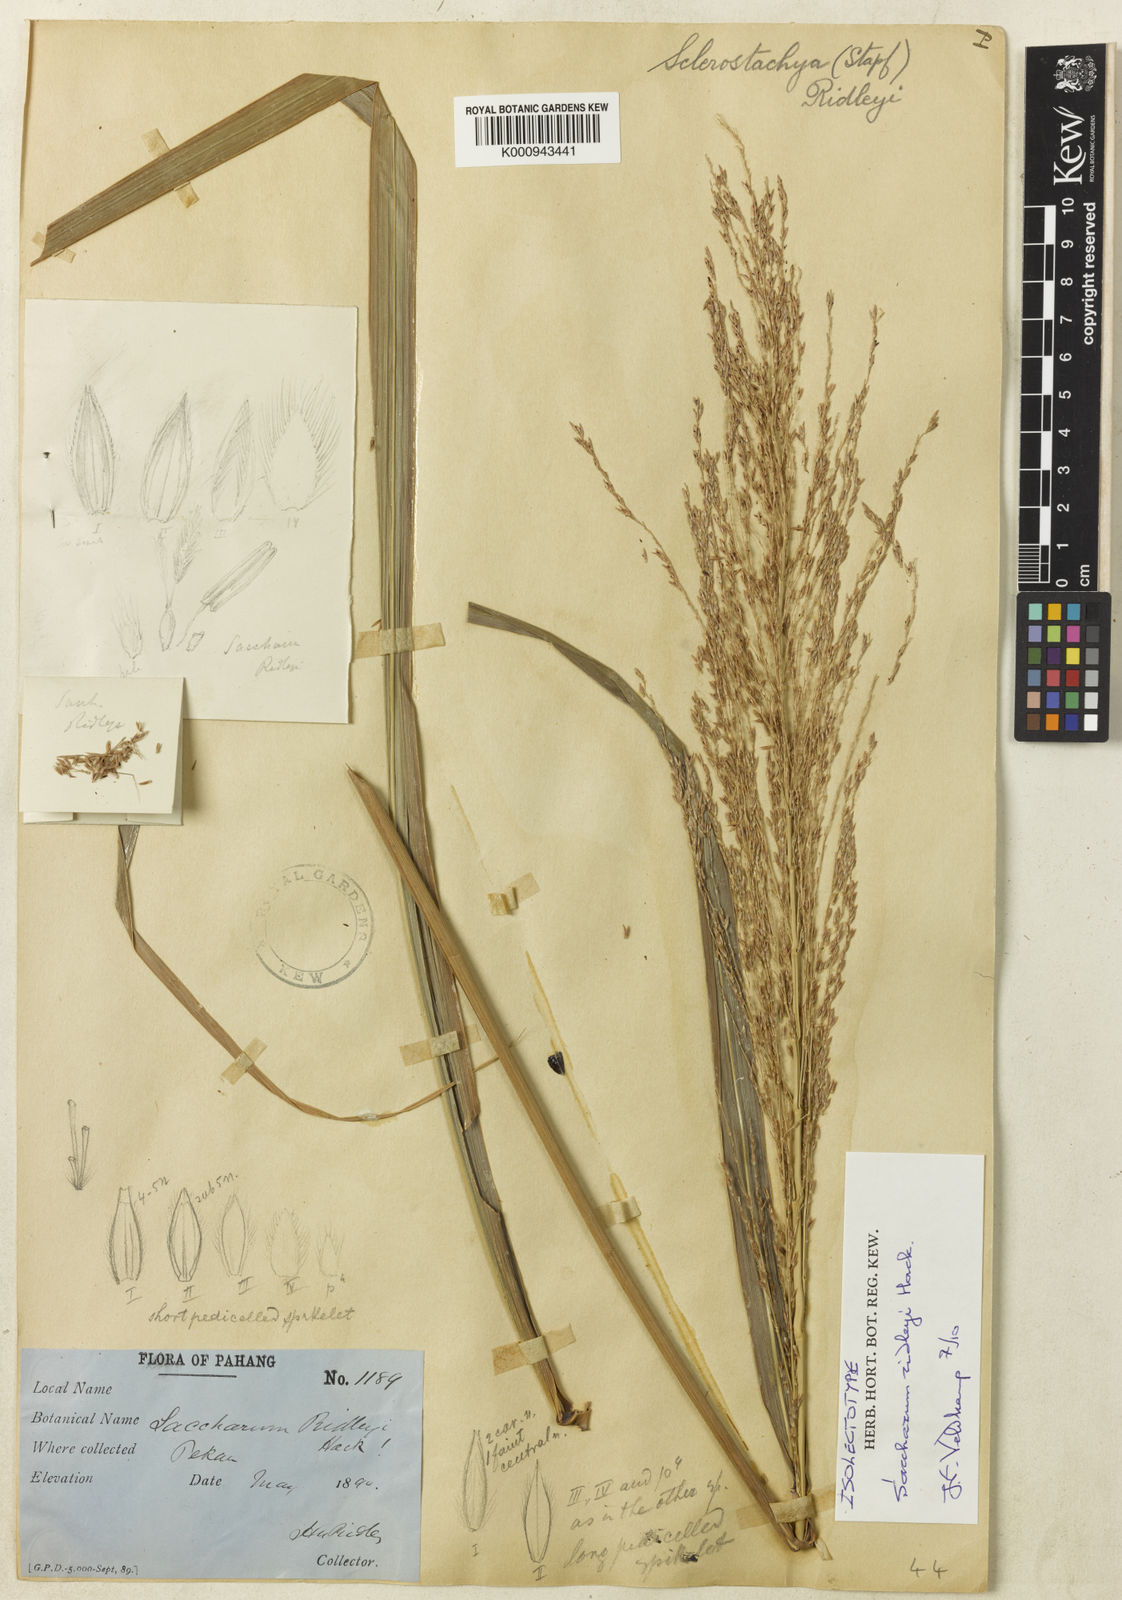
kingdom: Plantae
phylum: Tracheophyta
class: Liliopsida
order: Poales
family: Poaceae
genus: Miscanthus
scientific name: Miscanthus fuscus
